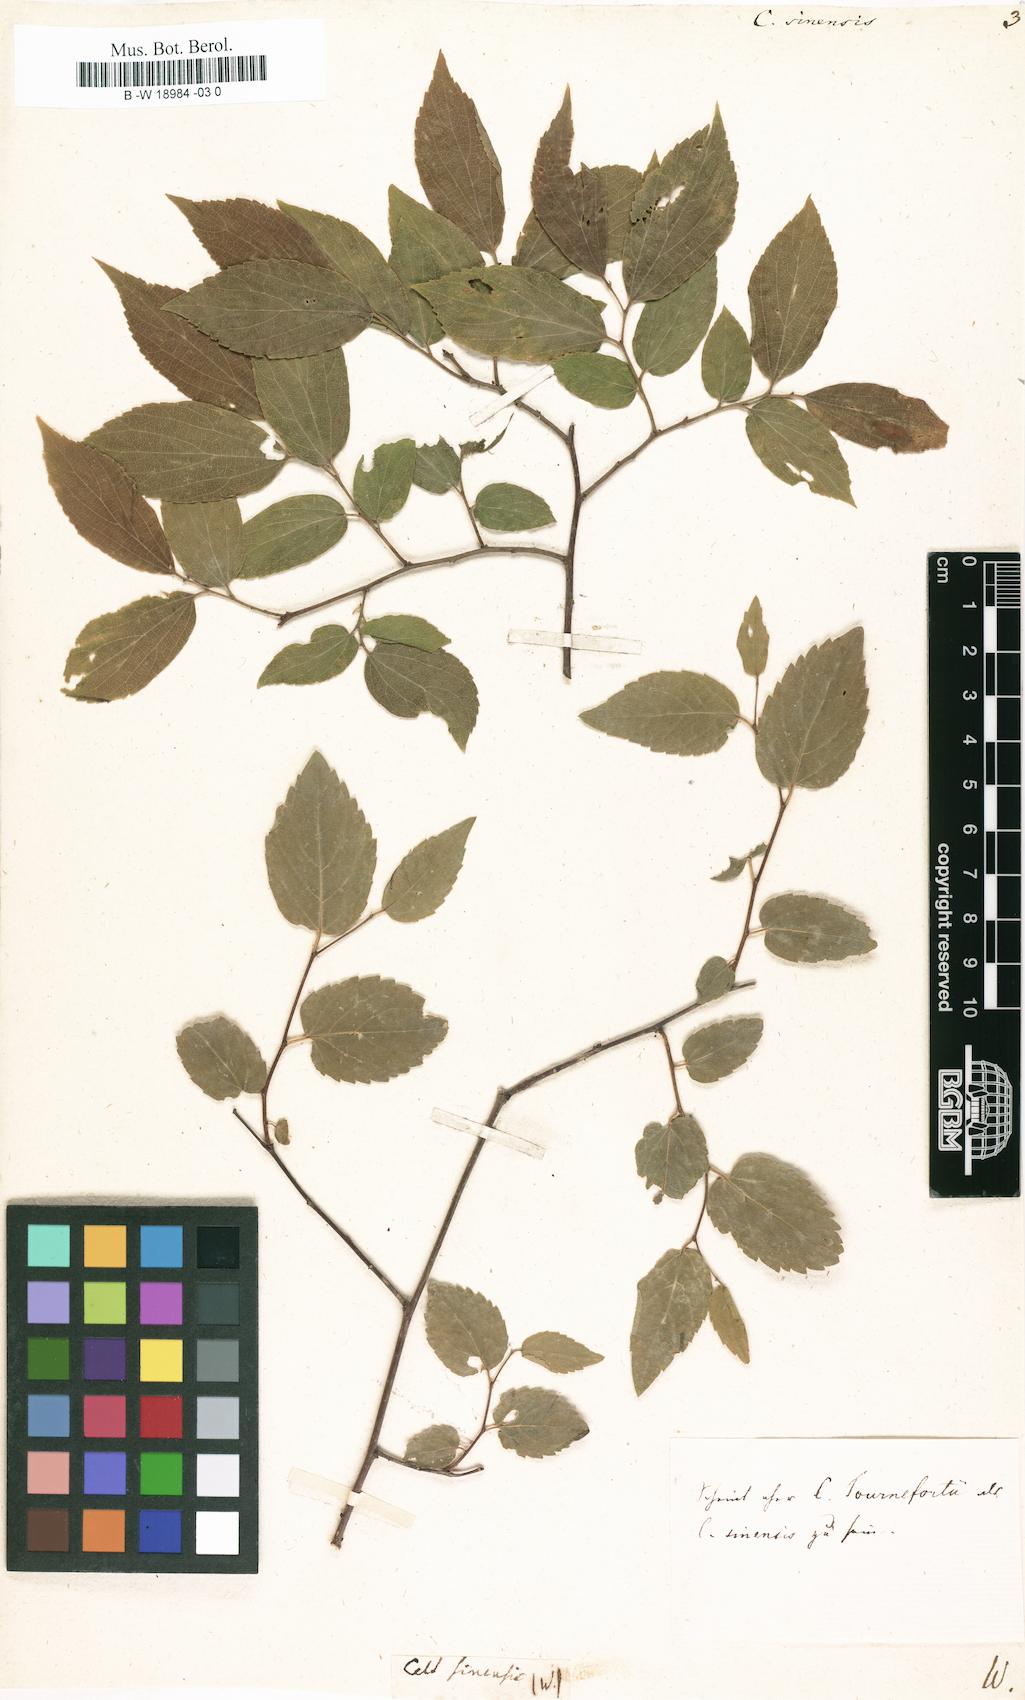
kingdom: Plantae
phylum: Tracheophyta
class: Magnoliopsida
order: Rosales
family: Cannabaceae
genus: Celtis
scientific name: Celtis sinensis
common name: Chinese hackberry
